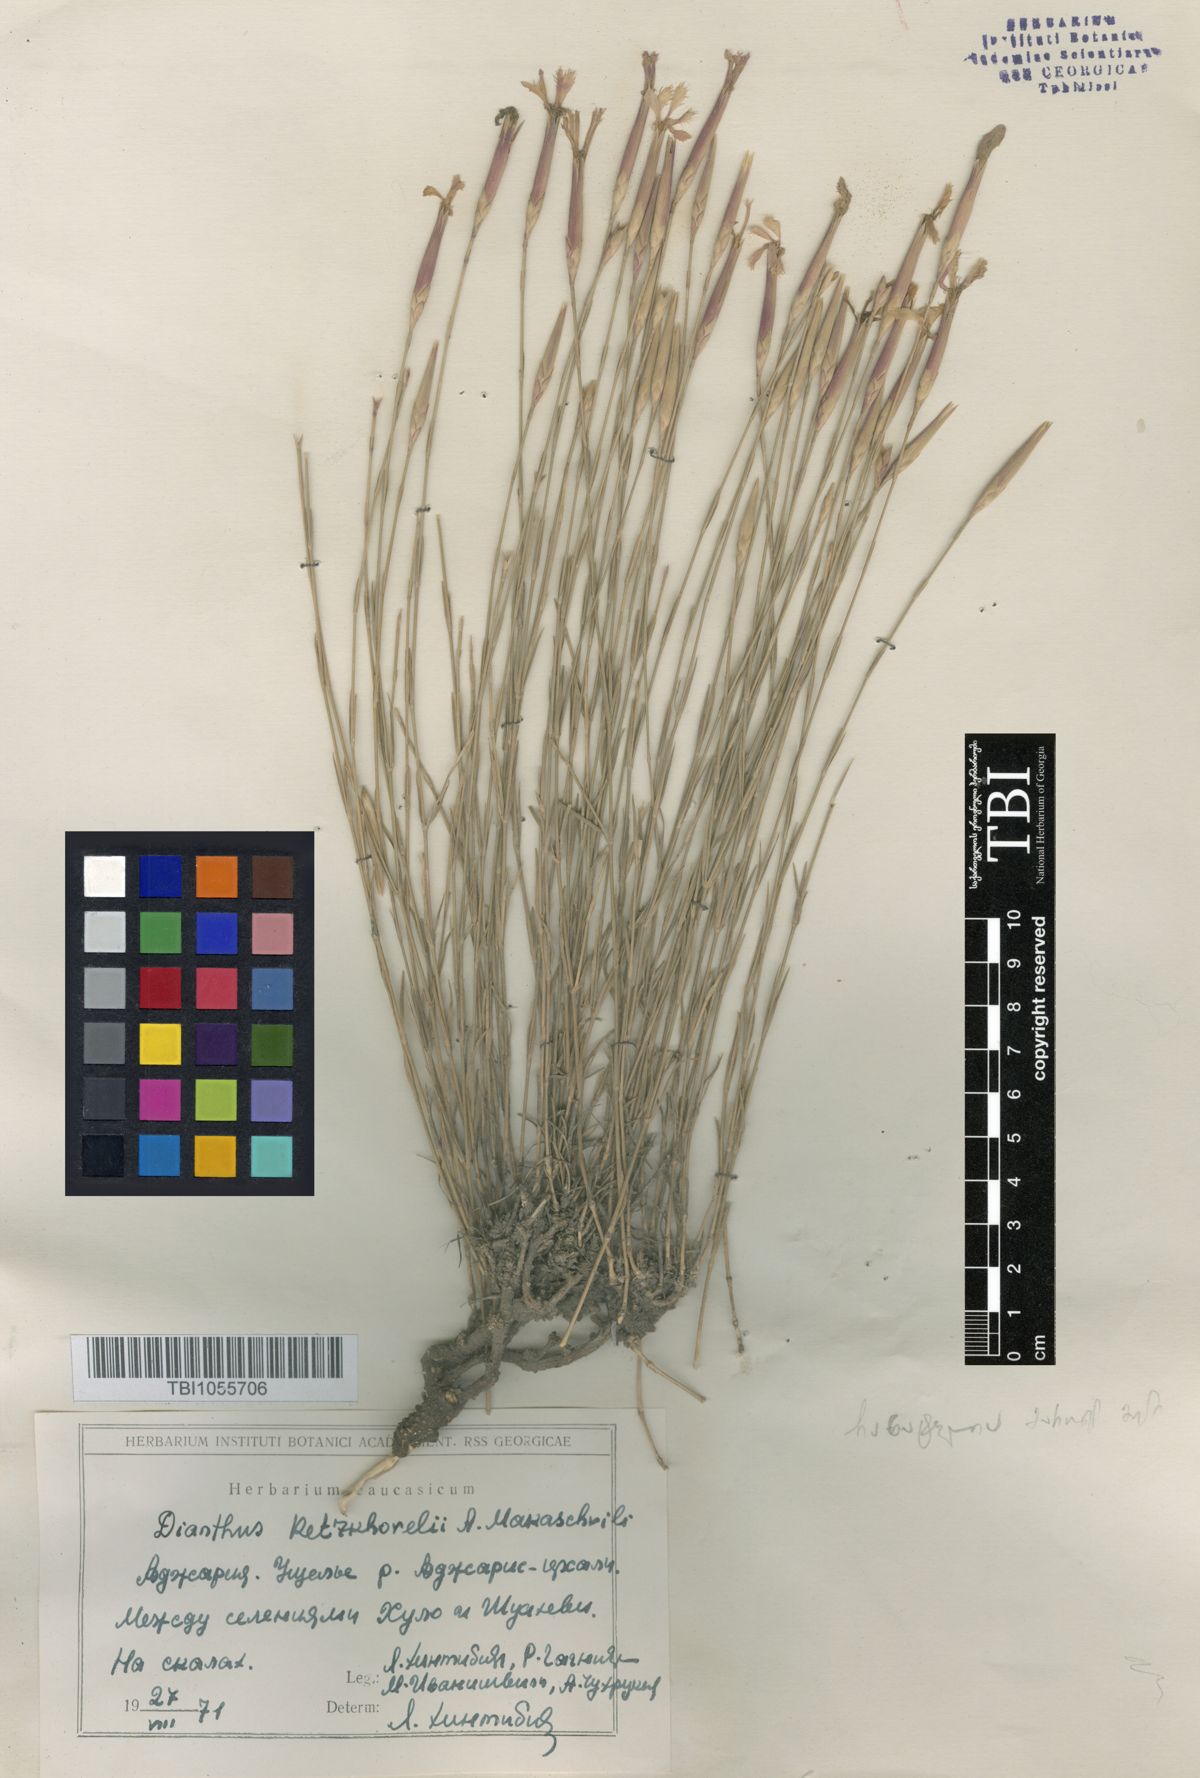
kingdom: Plantae
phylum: Tracheophyta
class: Magnoliopsida
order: Caryophyllales
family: Caryophyllaceae
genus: Dianthus
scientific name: Dianthus orientalis
